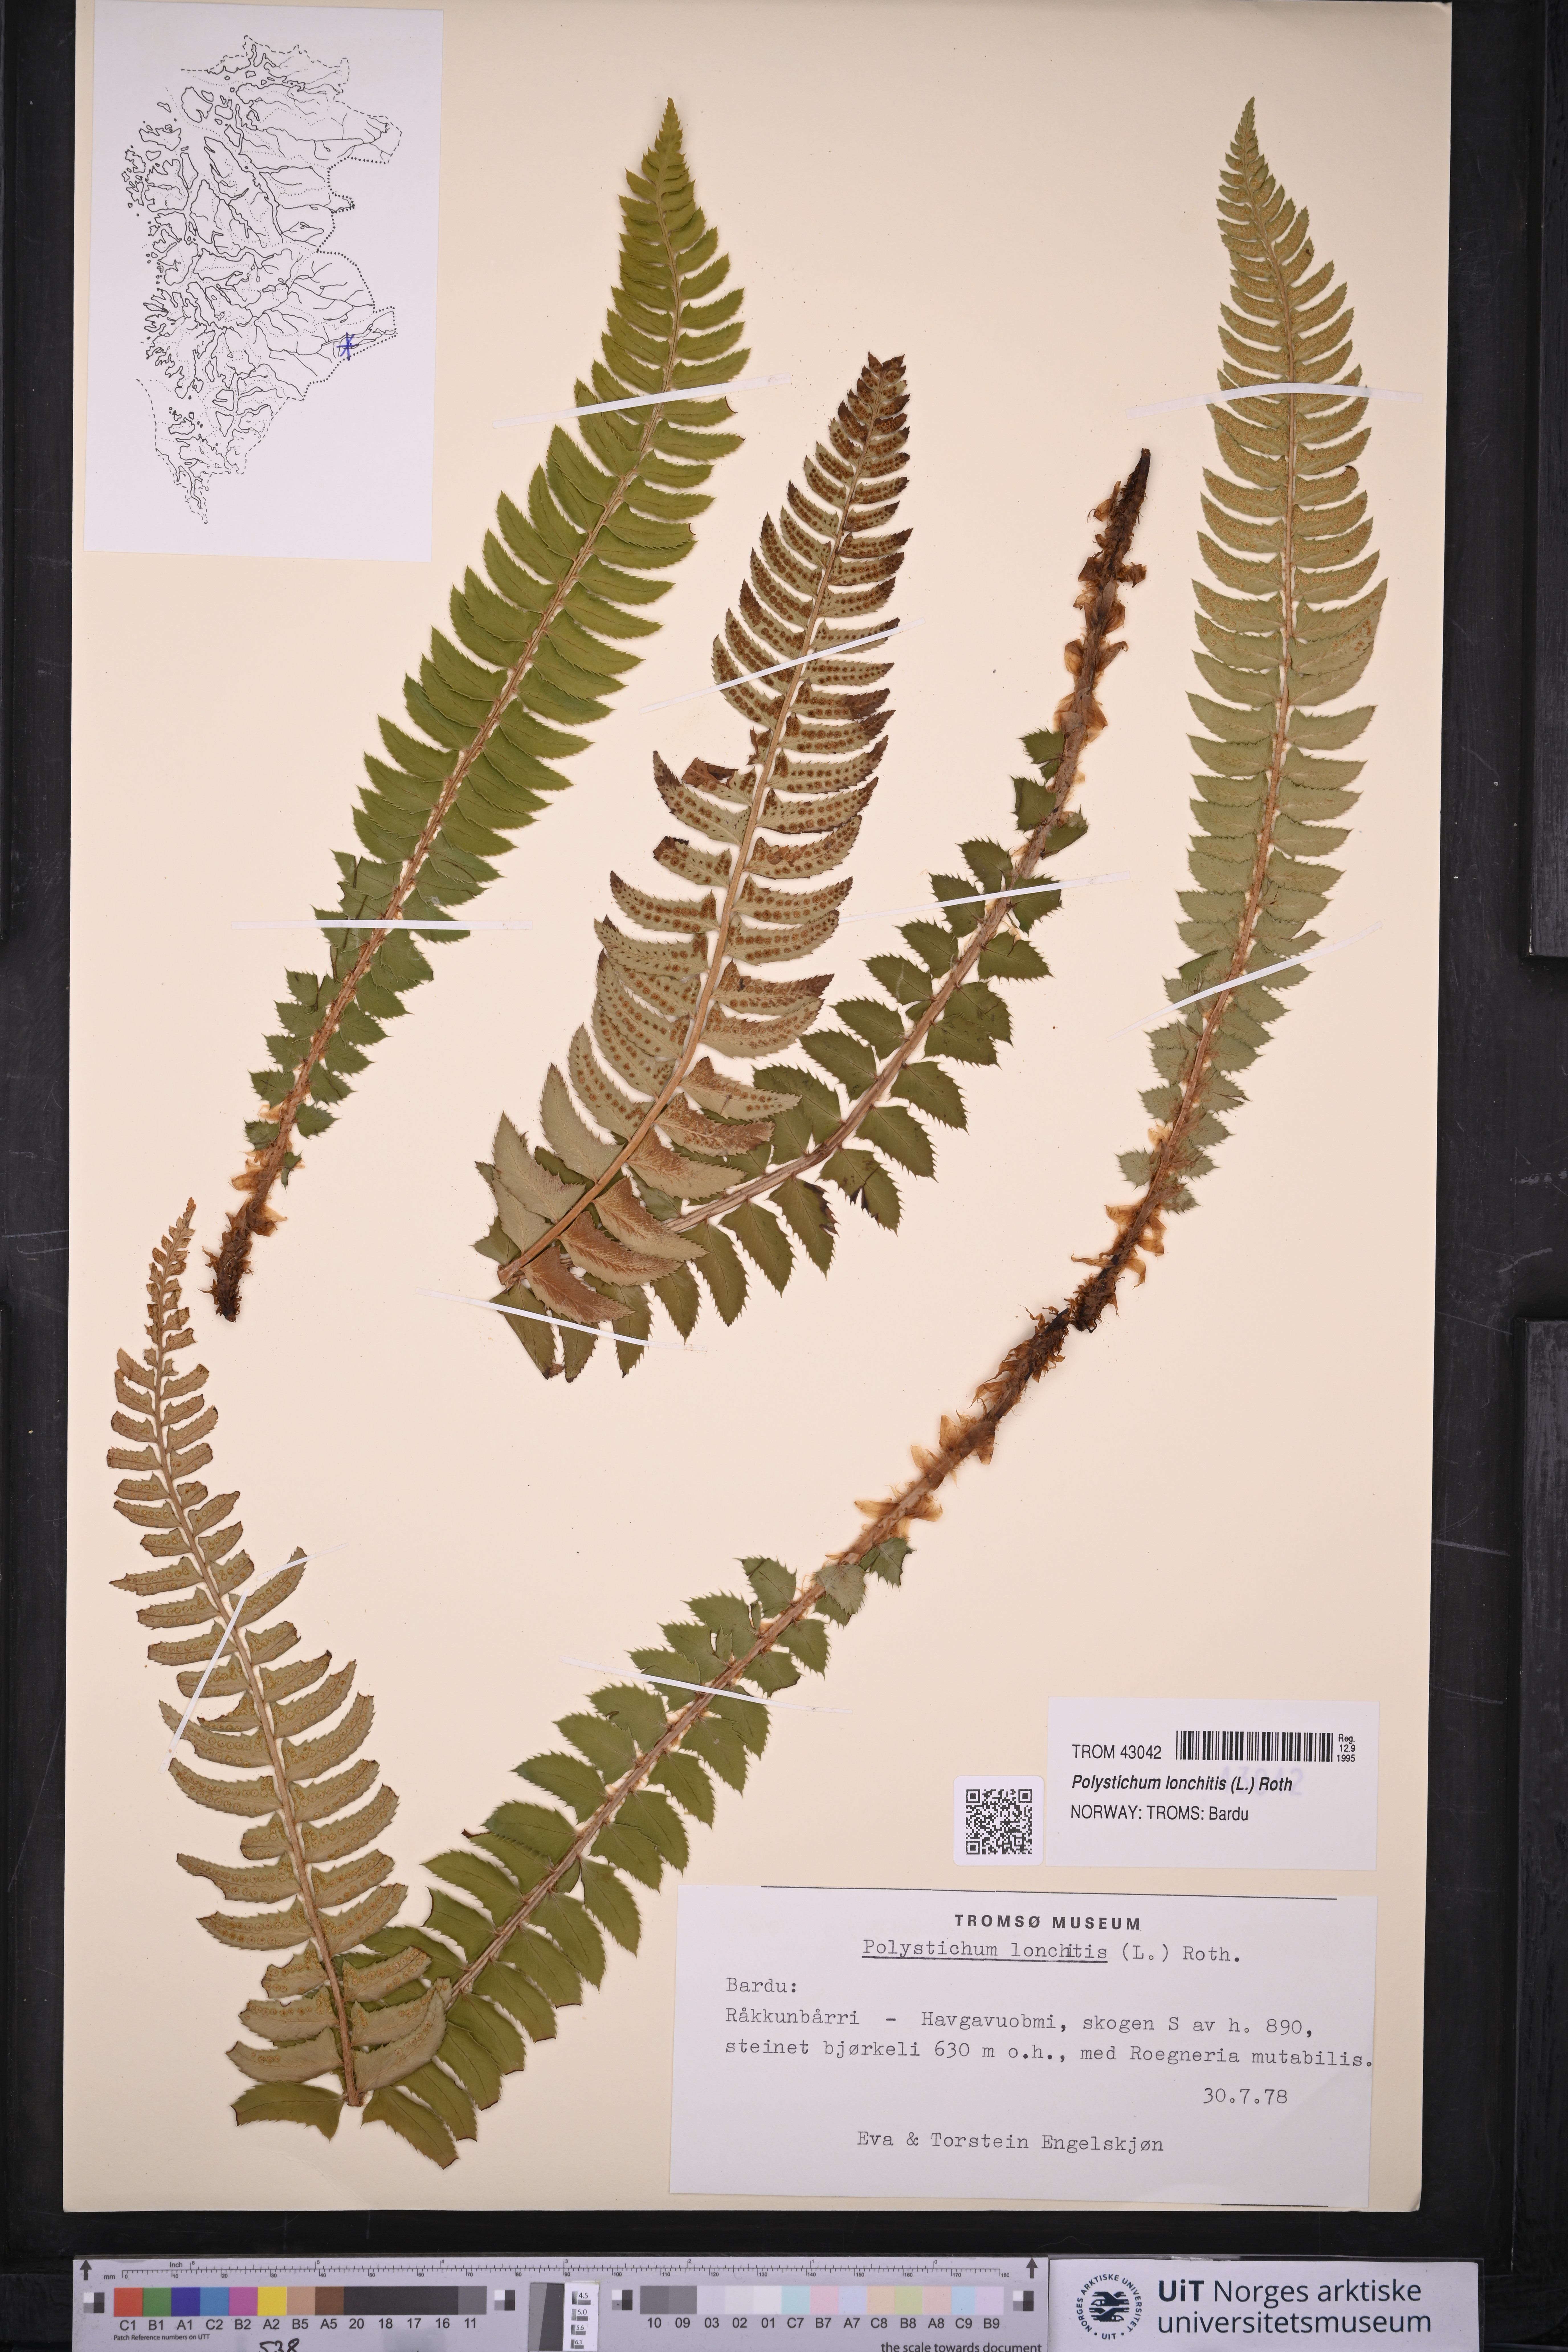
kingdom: Plantae
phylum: Tracheophyta
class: Polypodiopsida
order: Polypodiales
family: Dryopteridaceae
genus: Polystichum
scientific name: Polystichum lonchitis
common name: Holly fern
